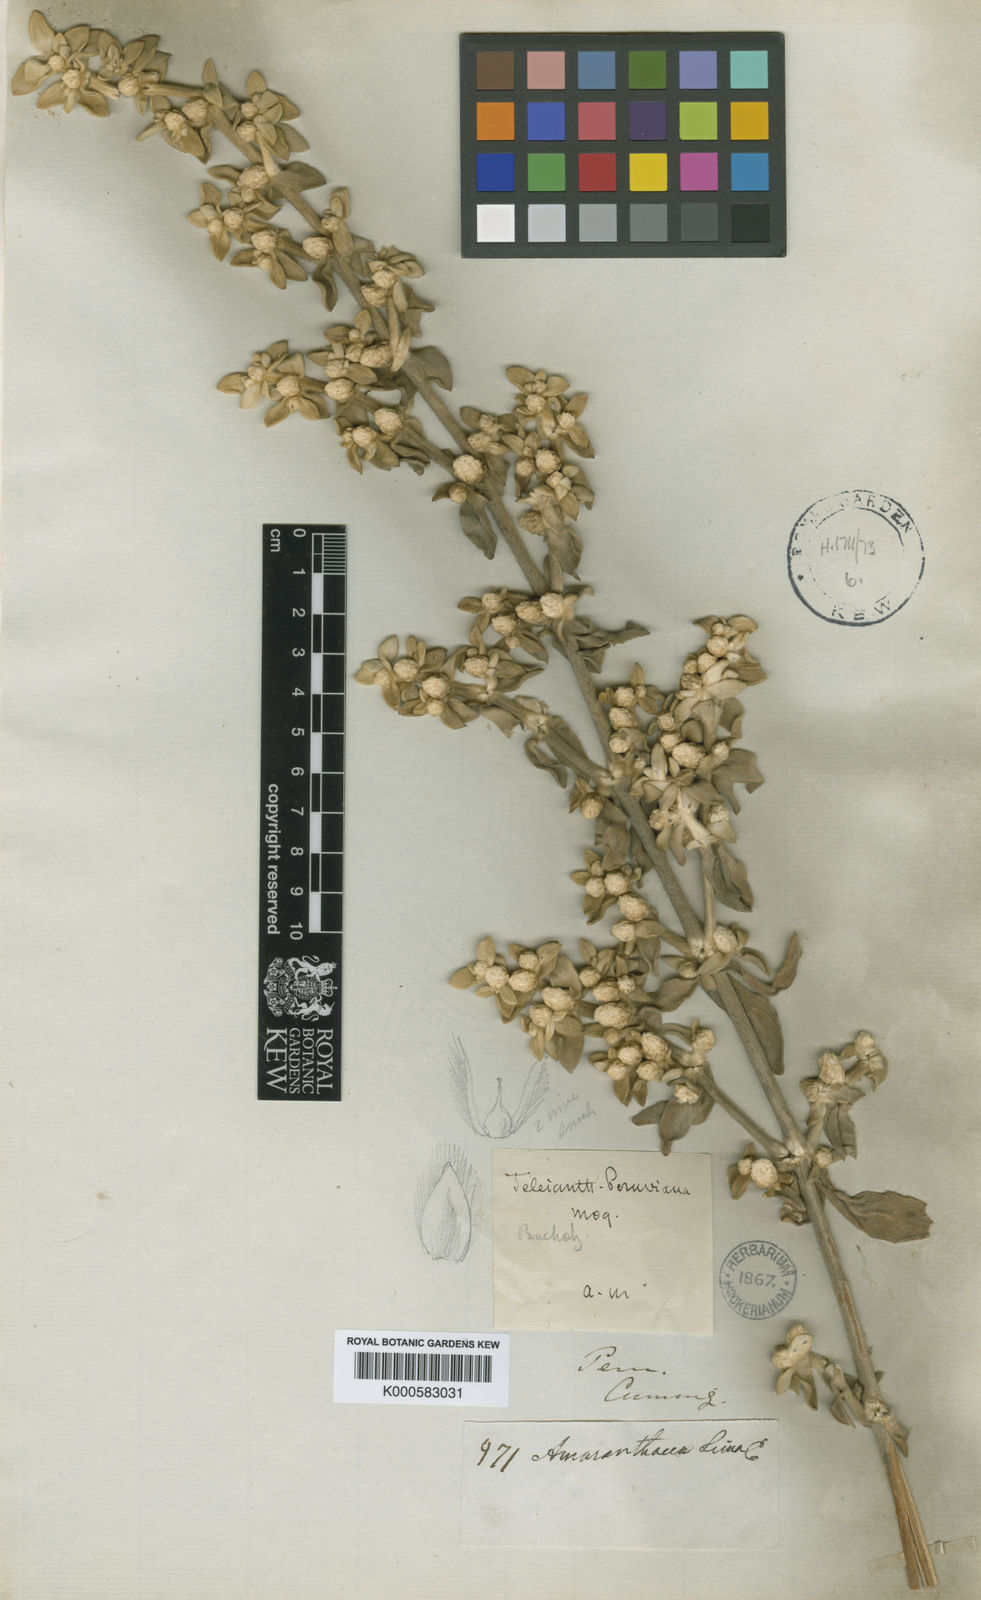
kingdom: Plantae
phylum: Tracheophyta
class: Magnoliopsida
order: Caryophyllales
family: Amaranthaceae
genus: Alternanthera
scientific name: Alternanthera peruviana
